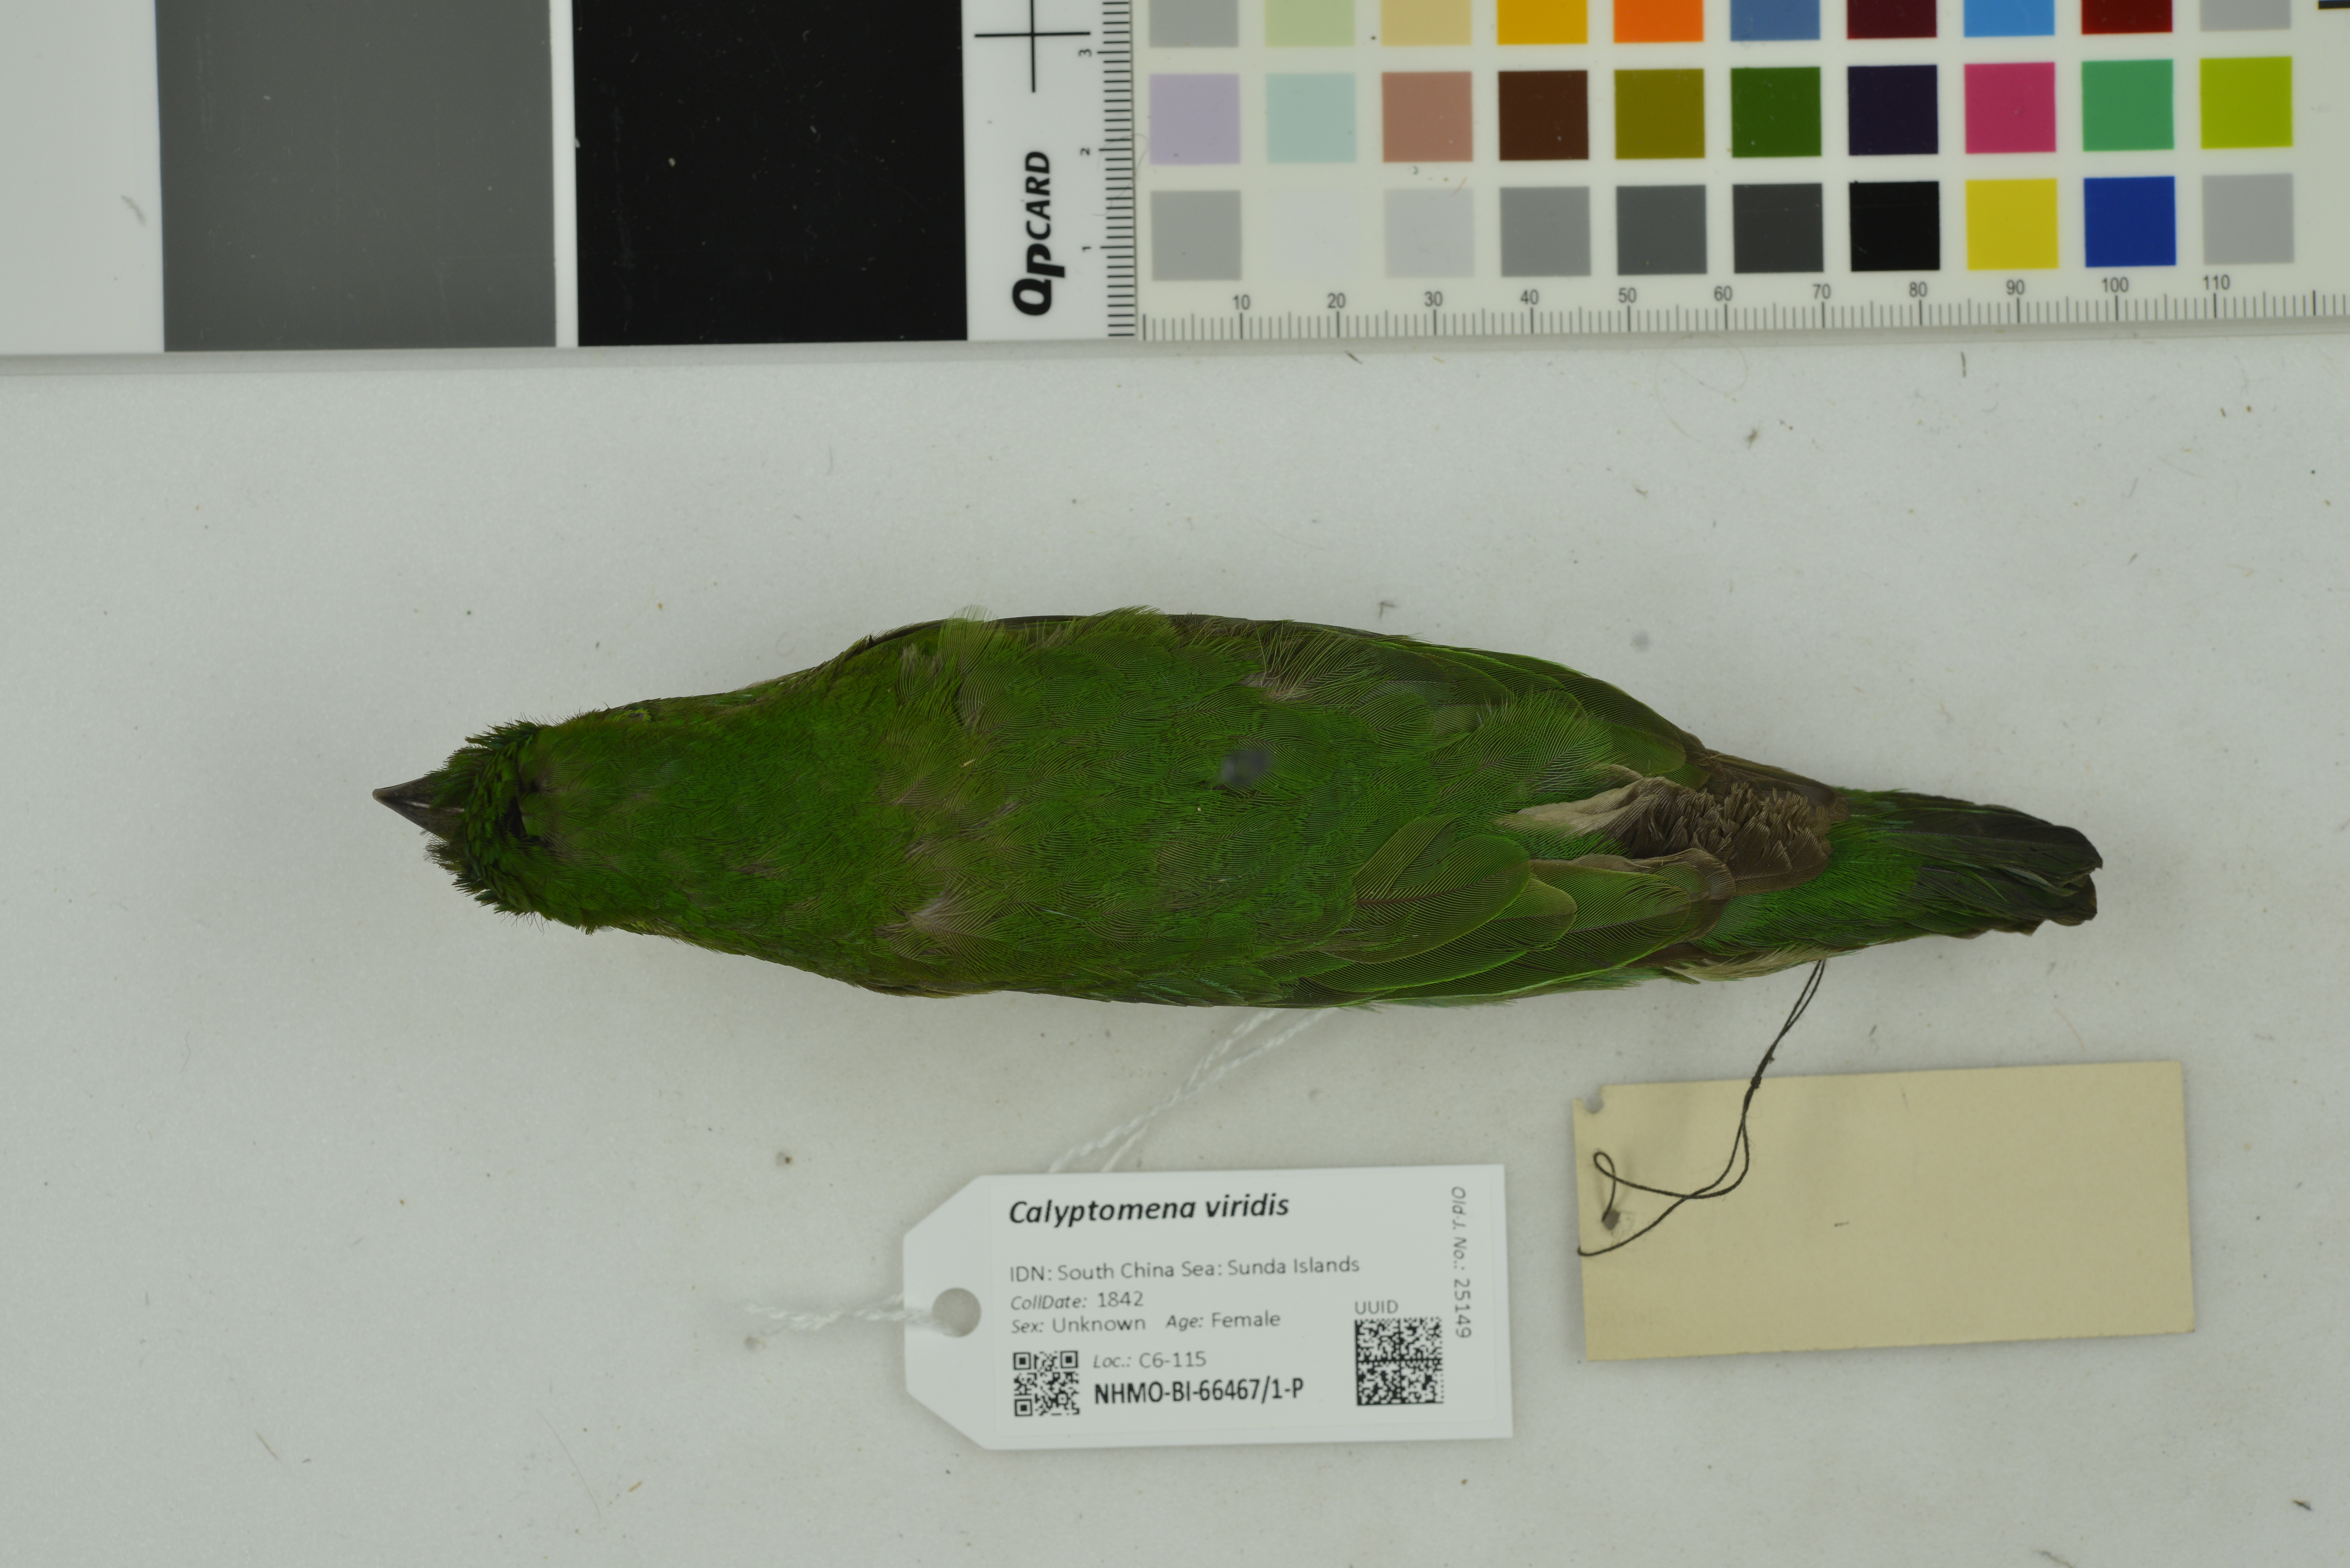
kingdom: Animalia
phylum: Chordata
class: Aves
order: Passeriformes
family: Eurylaimidae
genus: Calyptomena
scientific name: Calyptomena viridis
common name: Green broadbill
